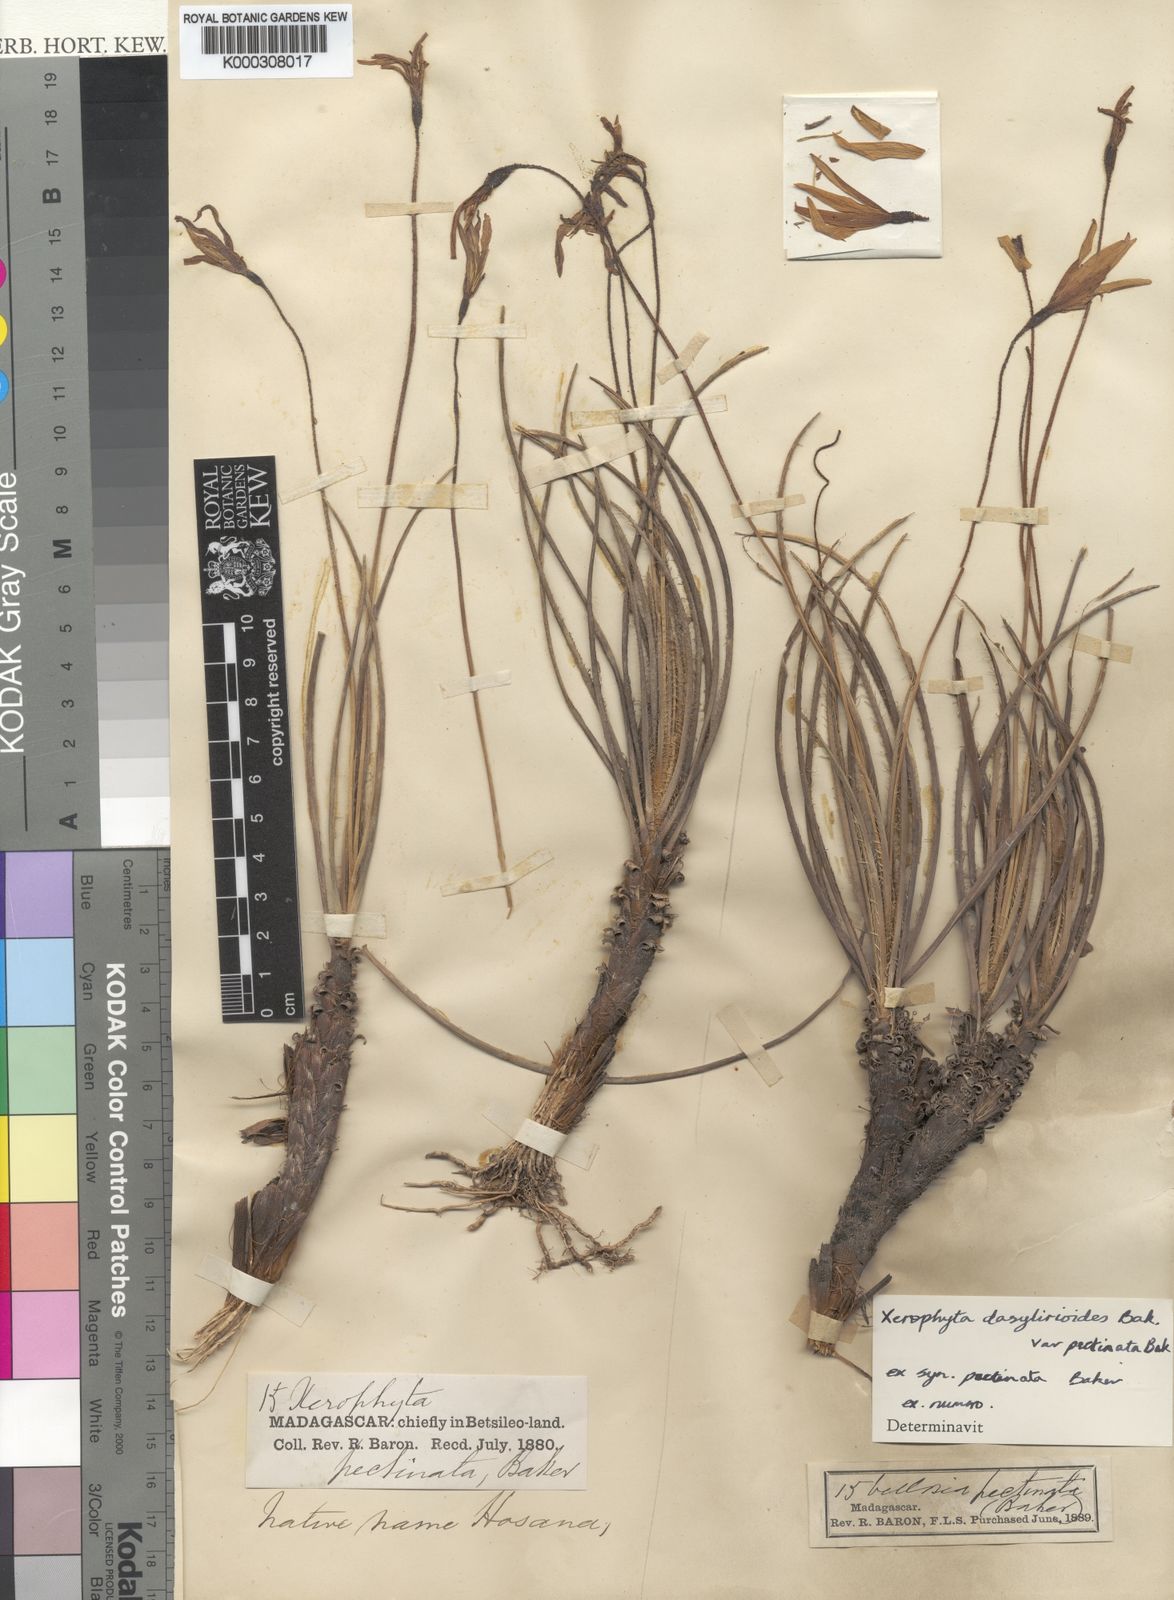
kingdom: Plantae
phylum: Tracheophyta
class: Liliopsida
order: Pandanales
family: Velloziaceae
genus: Xerophyta
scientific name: Xerophyta dasylirioides
